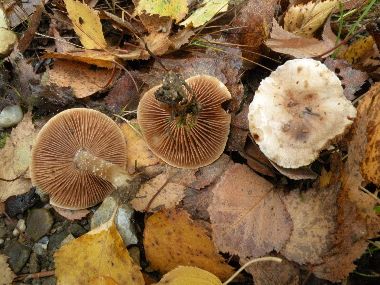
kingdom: Fungi
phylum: Basidiomycota
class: Agaricomycetes
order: Agaricales
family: Hymenogastraceae
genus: Hebeloma
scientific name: Hebeloma cavipes
